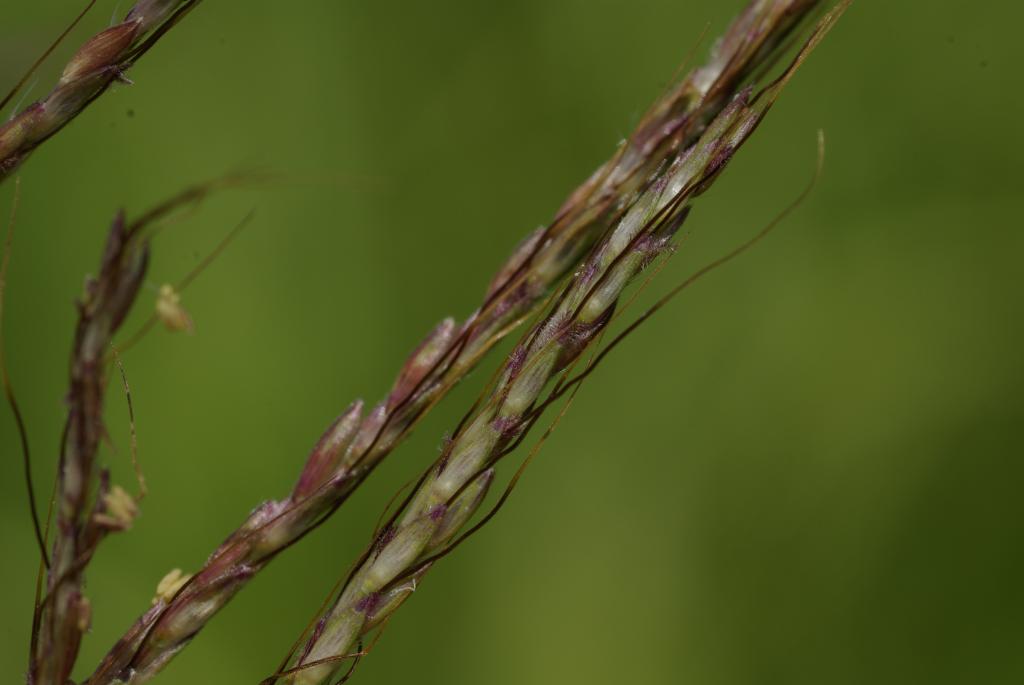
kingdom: Plantae
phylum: Tracheophyta
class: Liliopsida
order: Poales
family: Poaceae
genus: Bothriochloa
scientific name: Bothriochloa bladhii
